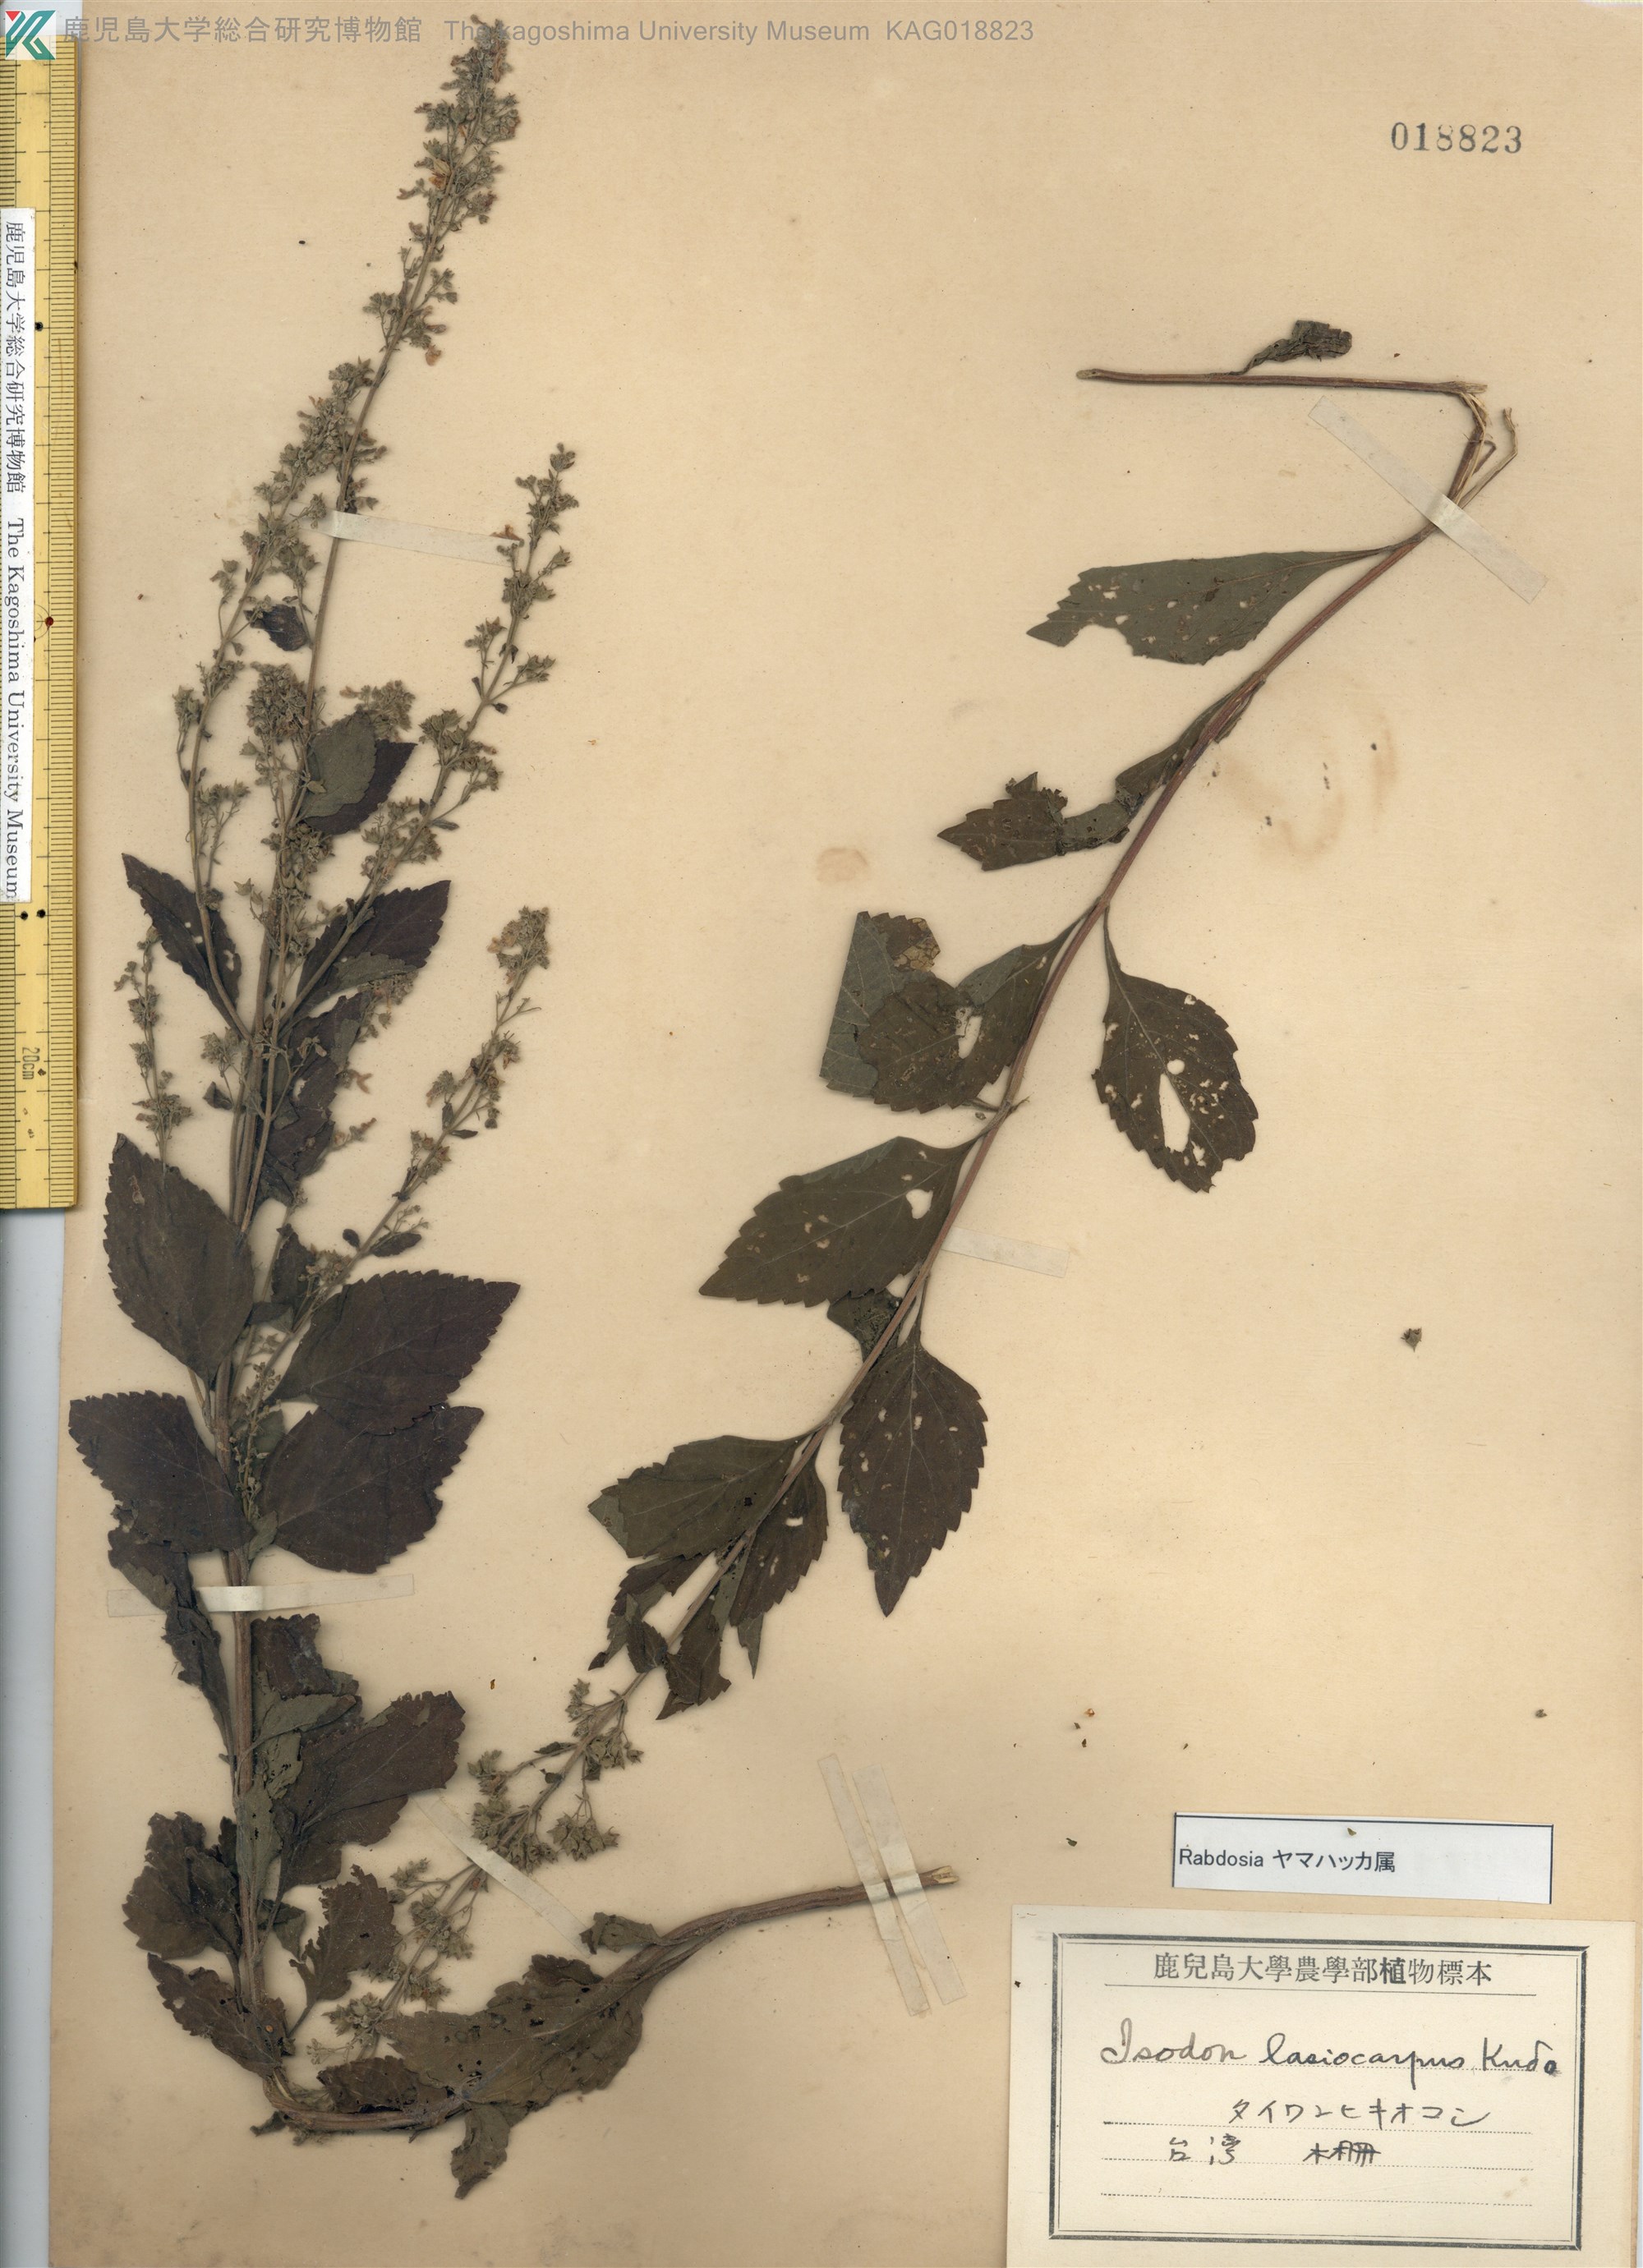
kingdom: Plantae
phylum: Tracheophyta
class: Magnoliopsida
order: Lamiales
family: Lamiaceae
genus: Isodon
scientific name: Isodon serra
